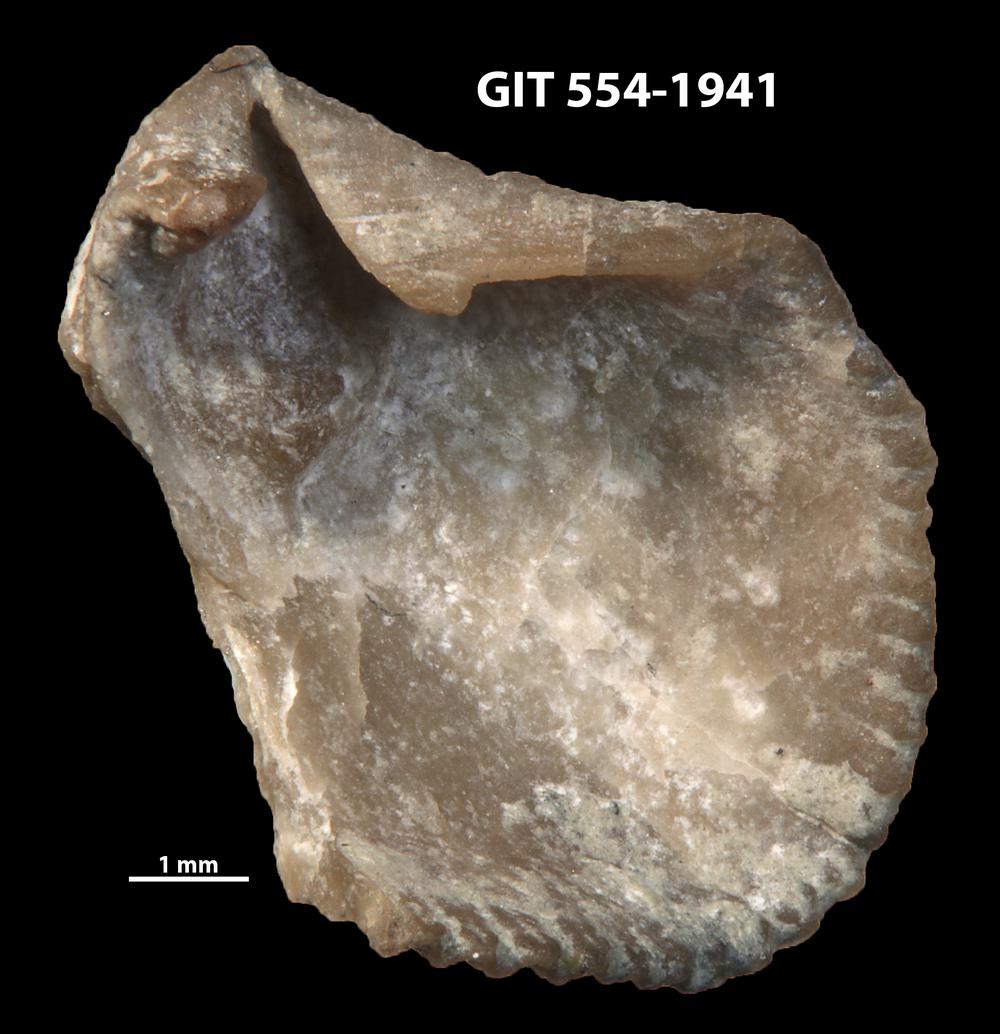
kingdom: Animalia
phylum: Brachiopoda
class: Rhynchonellata
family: Dolerorthidae
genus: Glyptorthis
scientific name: Glyptorthis irrupta
